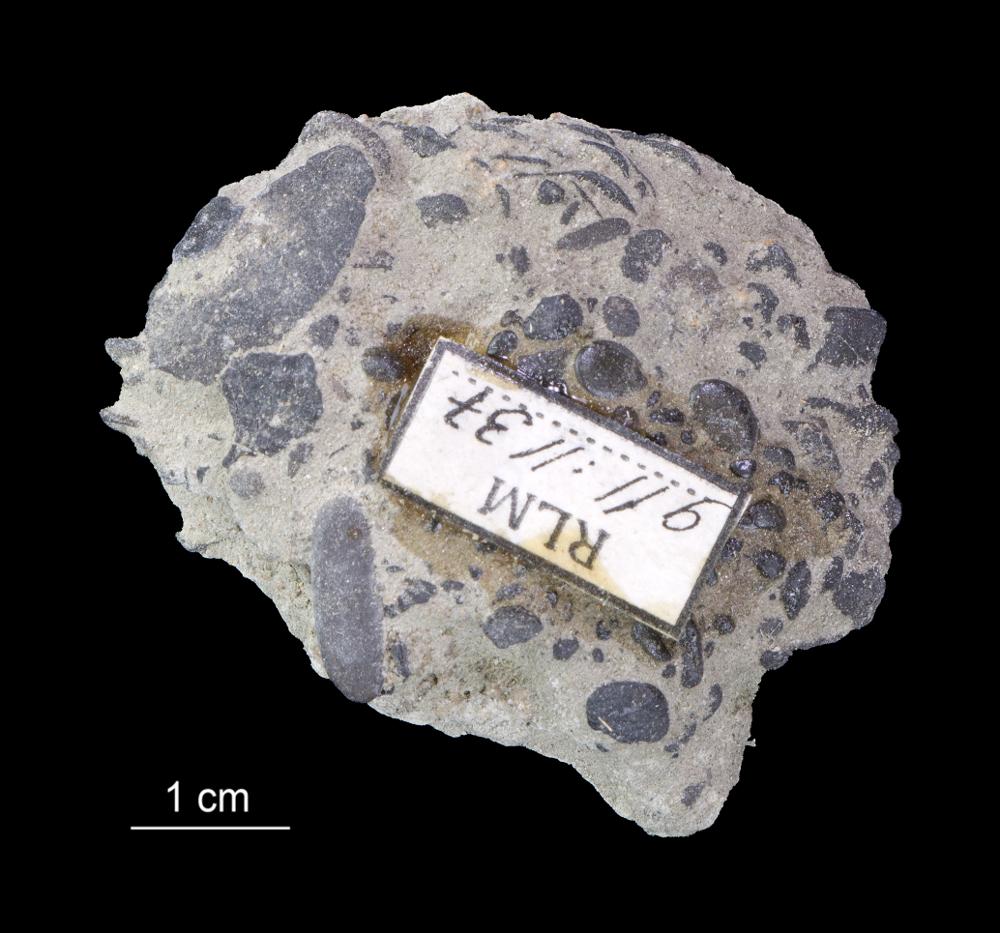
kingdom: Animalia
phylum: Brachiopoda
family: Paterinidae
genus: Mickwitzia
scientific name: Mickwitzia
